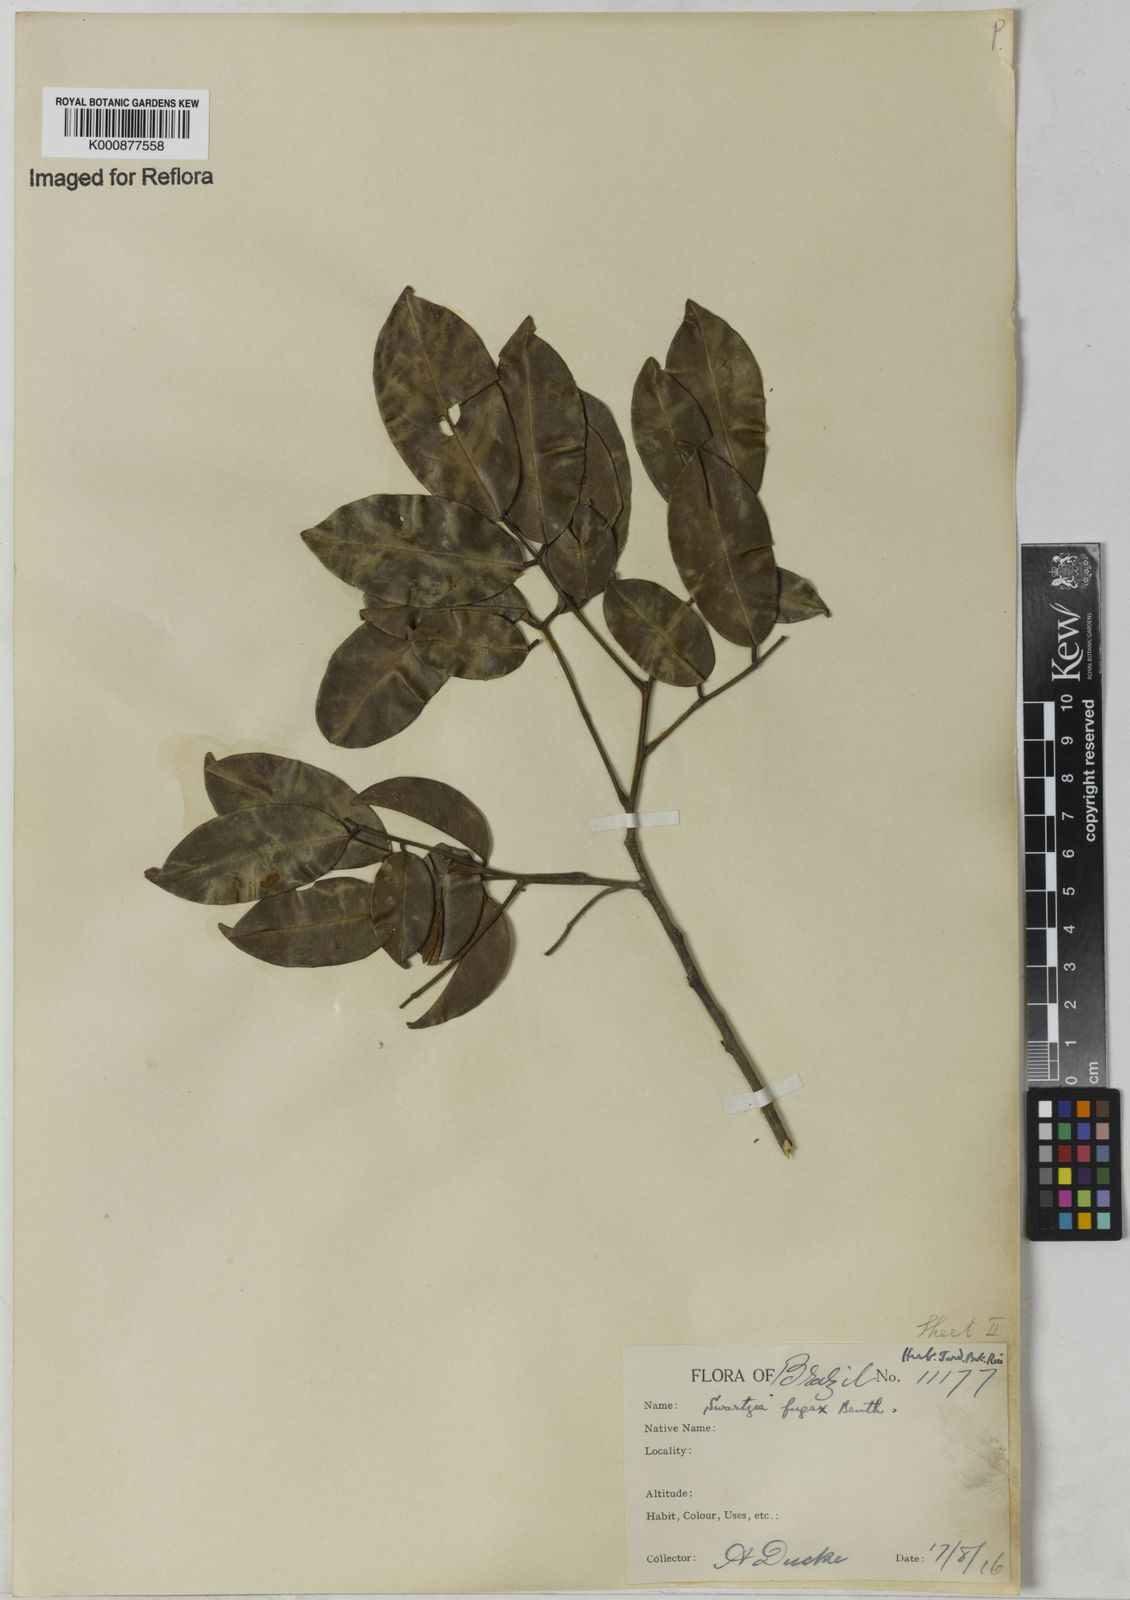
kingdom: Plantae
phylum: Tracheophyta
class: Magnoliopsida
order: Fabales
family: Fabaceae
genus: Swartzia
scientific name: Swartzia leptopetala
